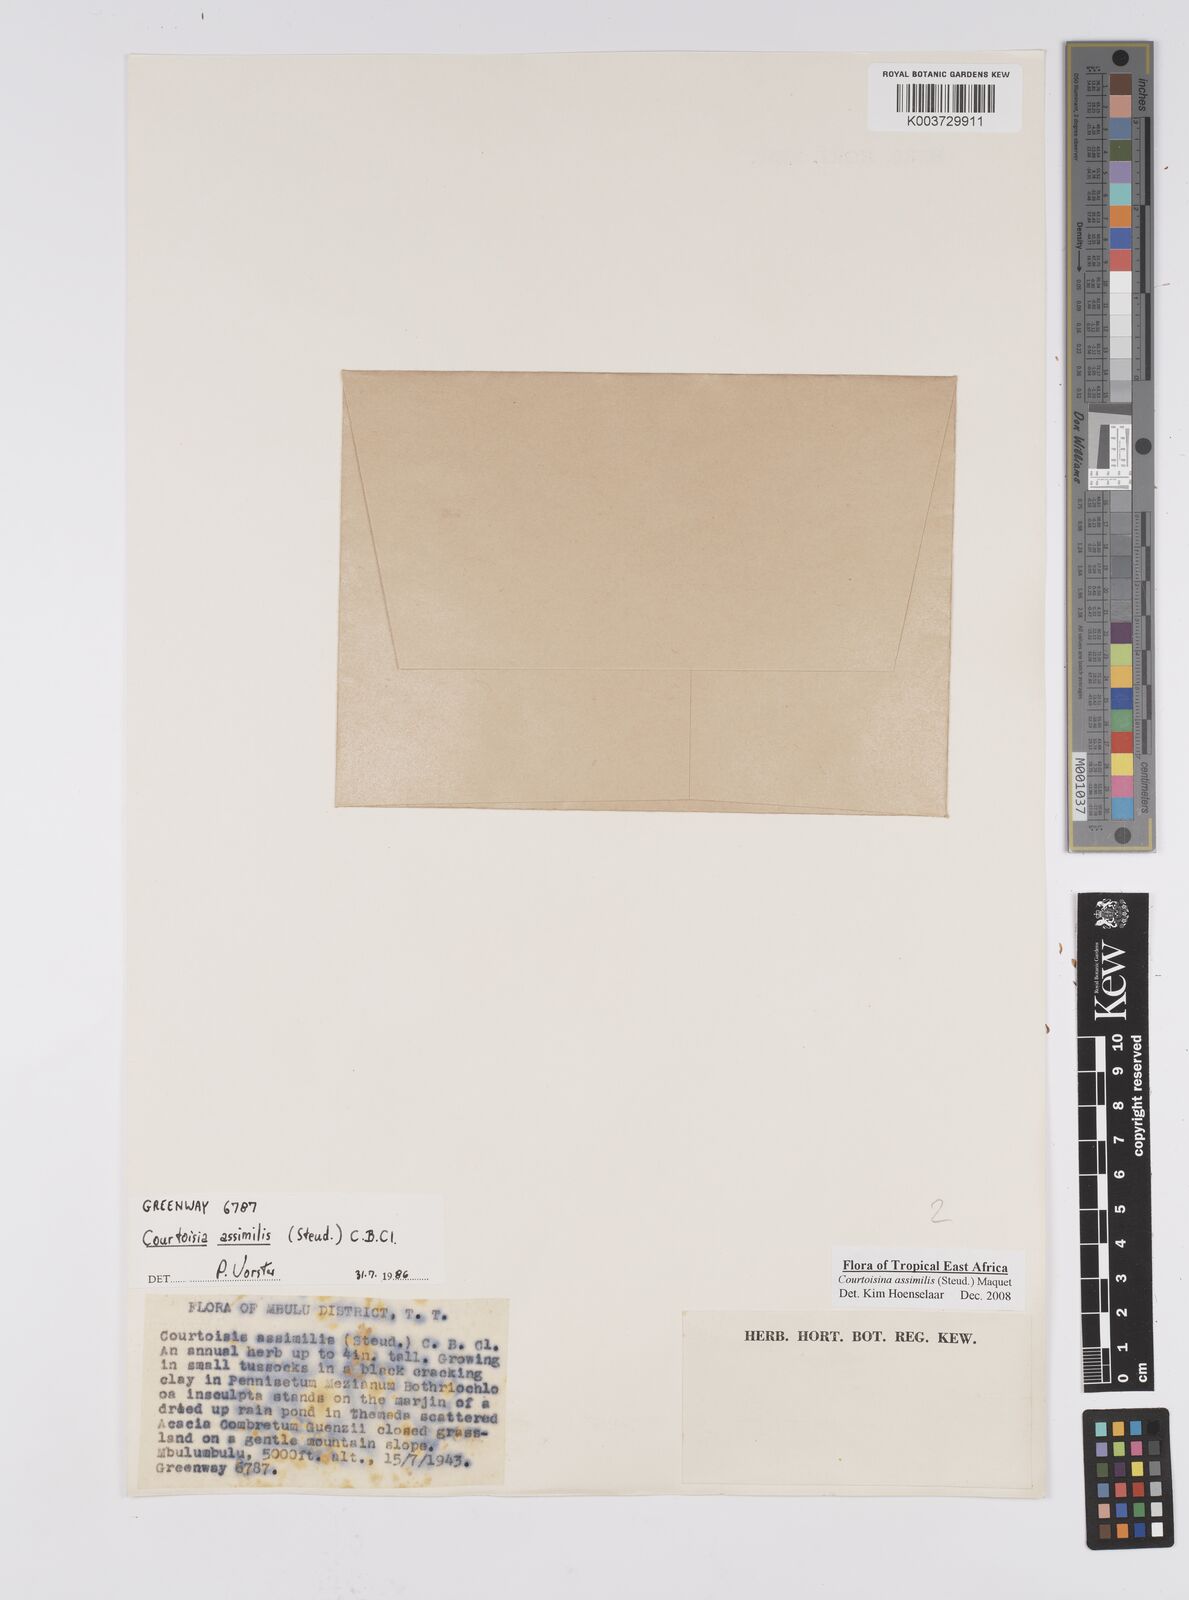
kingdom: Plantae
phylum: Tracheophyta
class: Liliopsida
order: Poales
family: Cyperaceae
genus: Cyperus
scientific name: Cyperus assimilis
